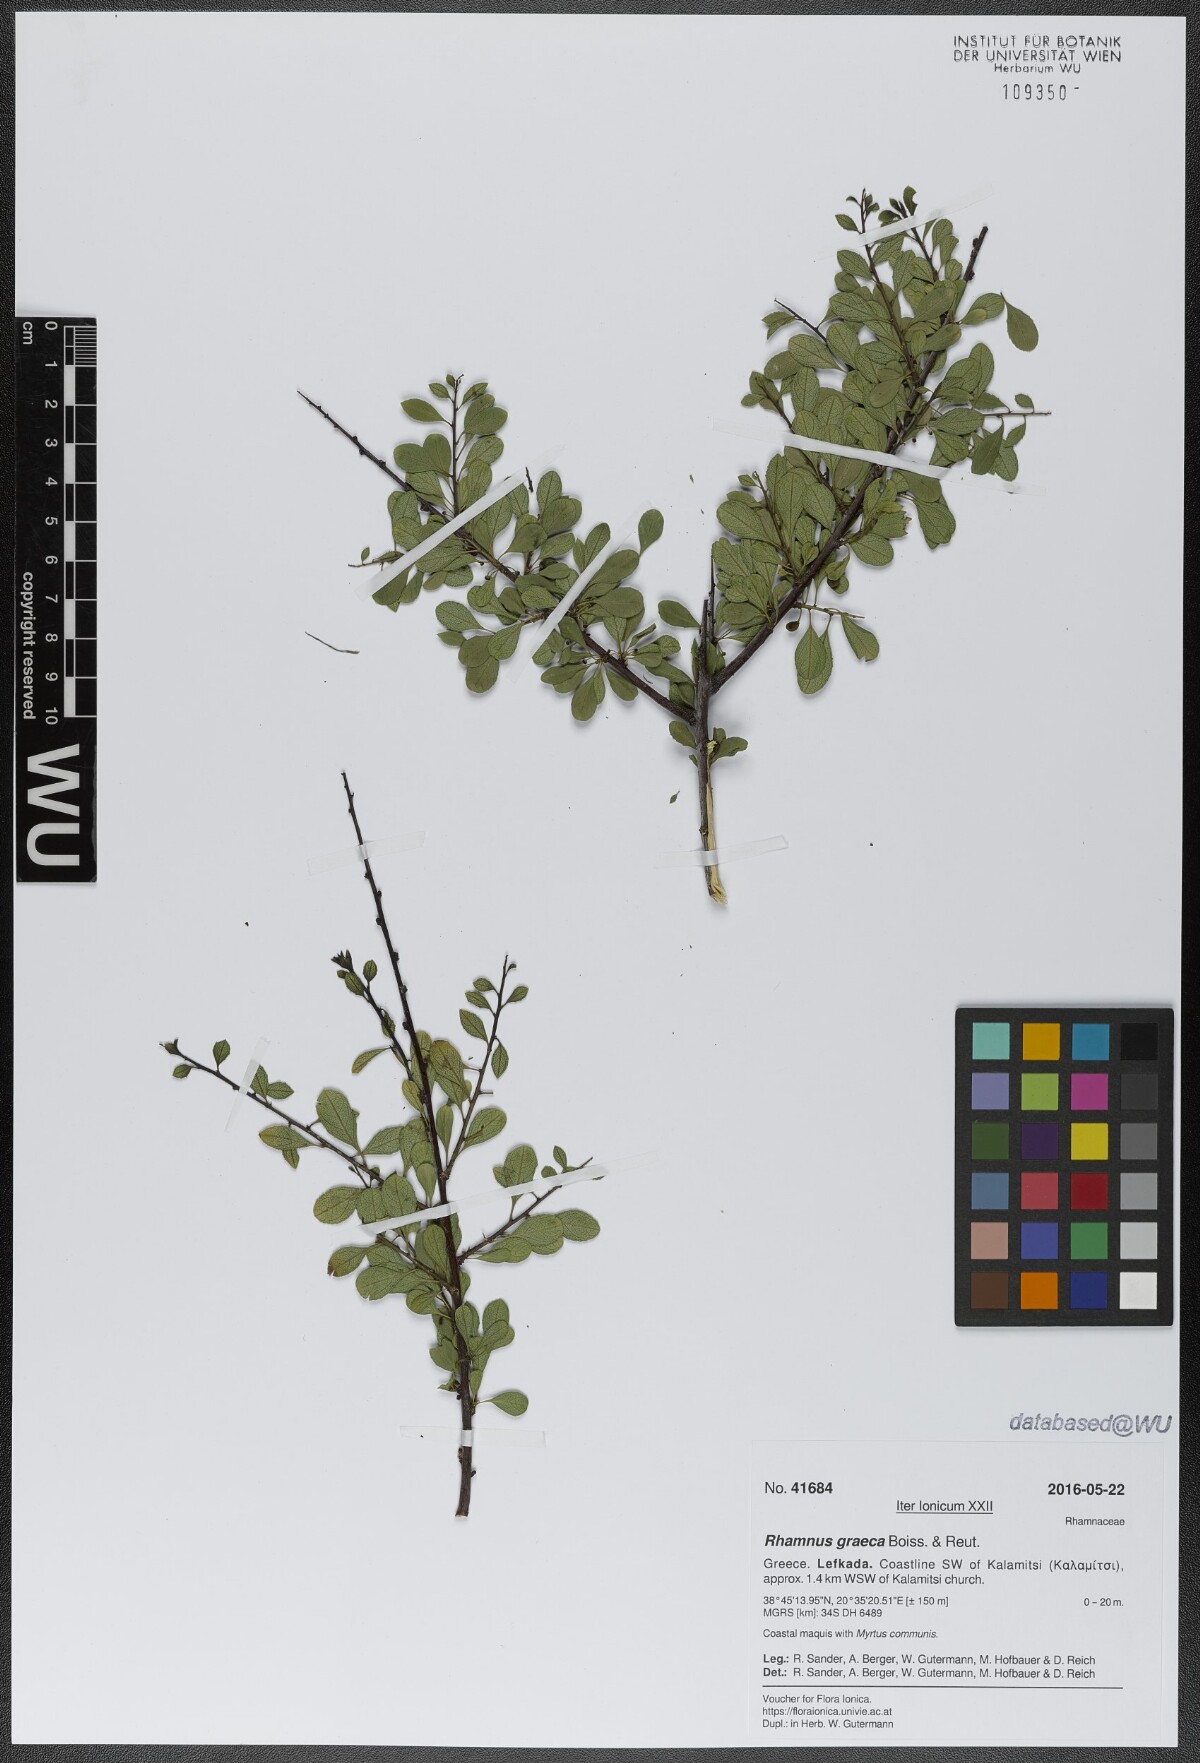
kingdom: Plantae
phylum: Tracheophyta
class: Magnoliopsida
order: Rosales
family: Rhamnaceae
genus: Rhamnus
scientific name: Rhamnus
